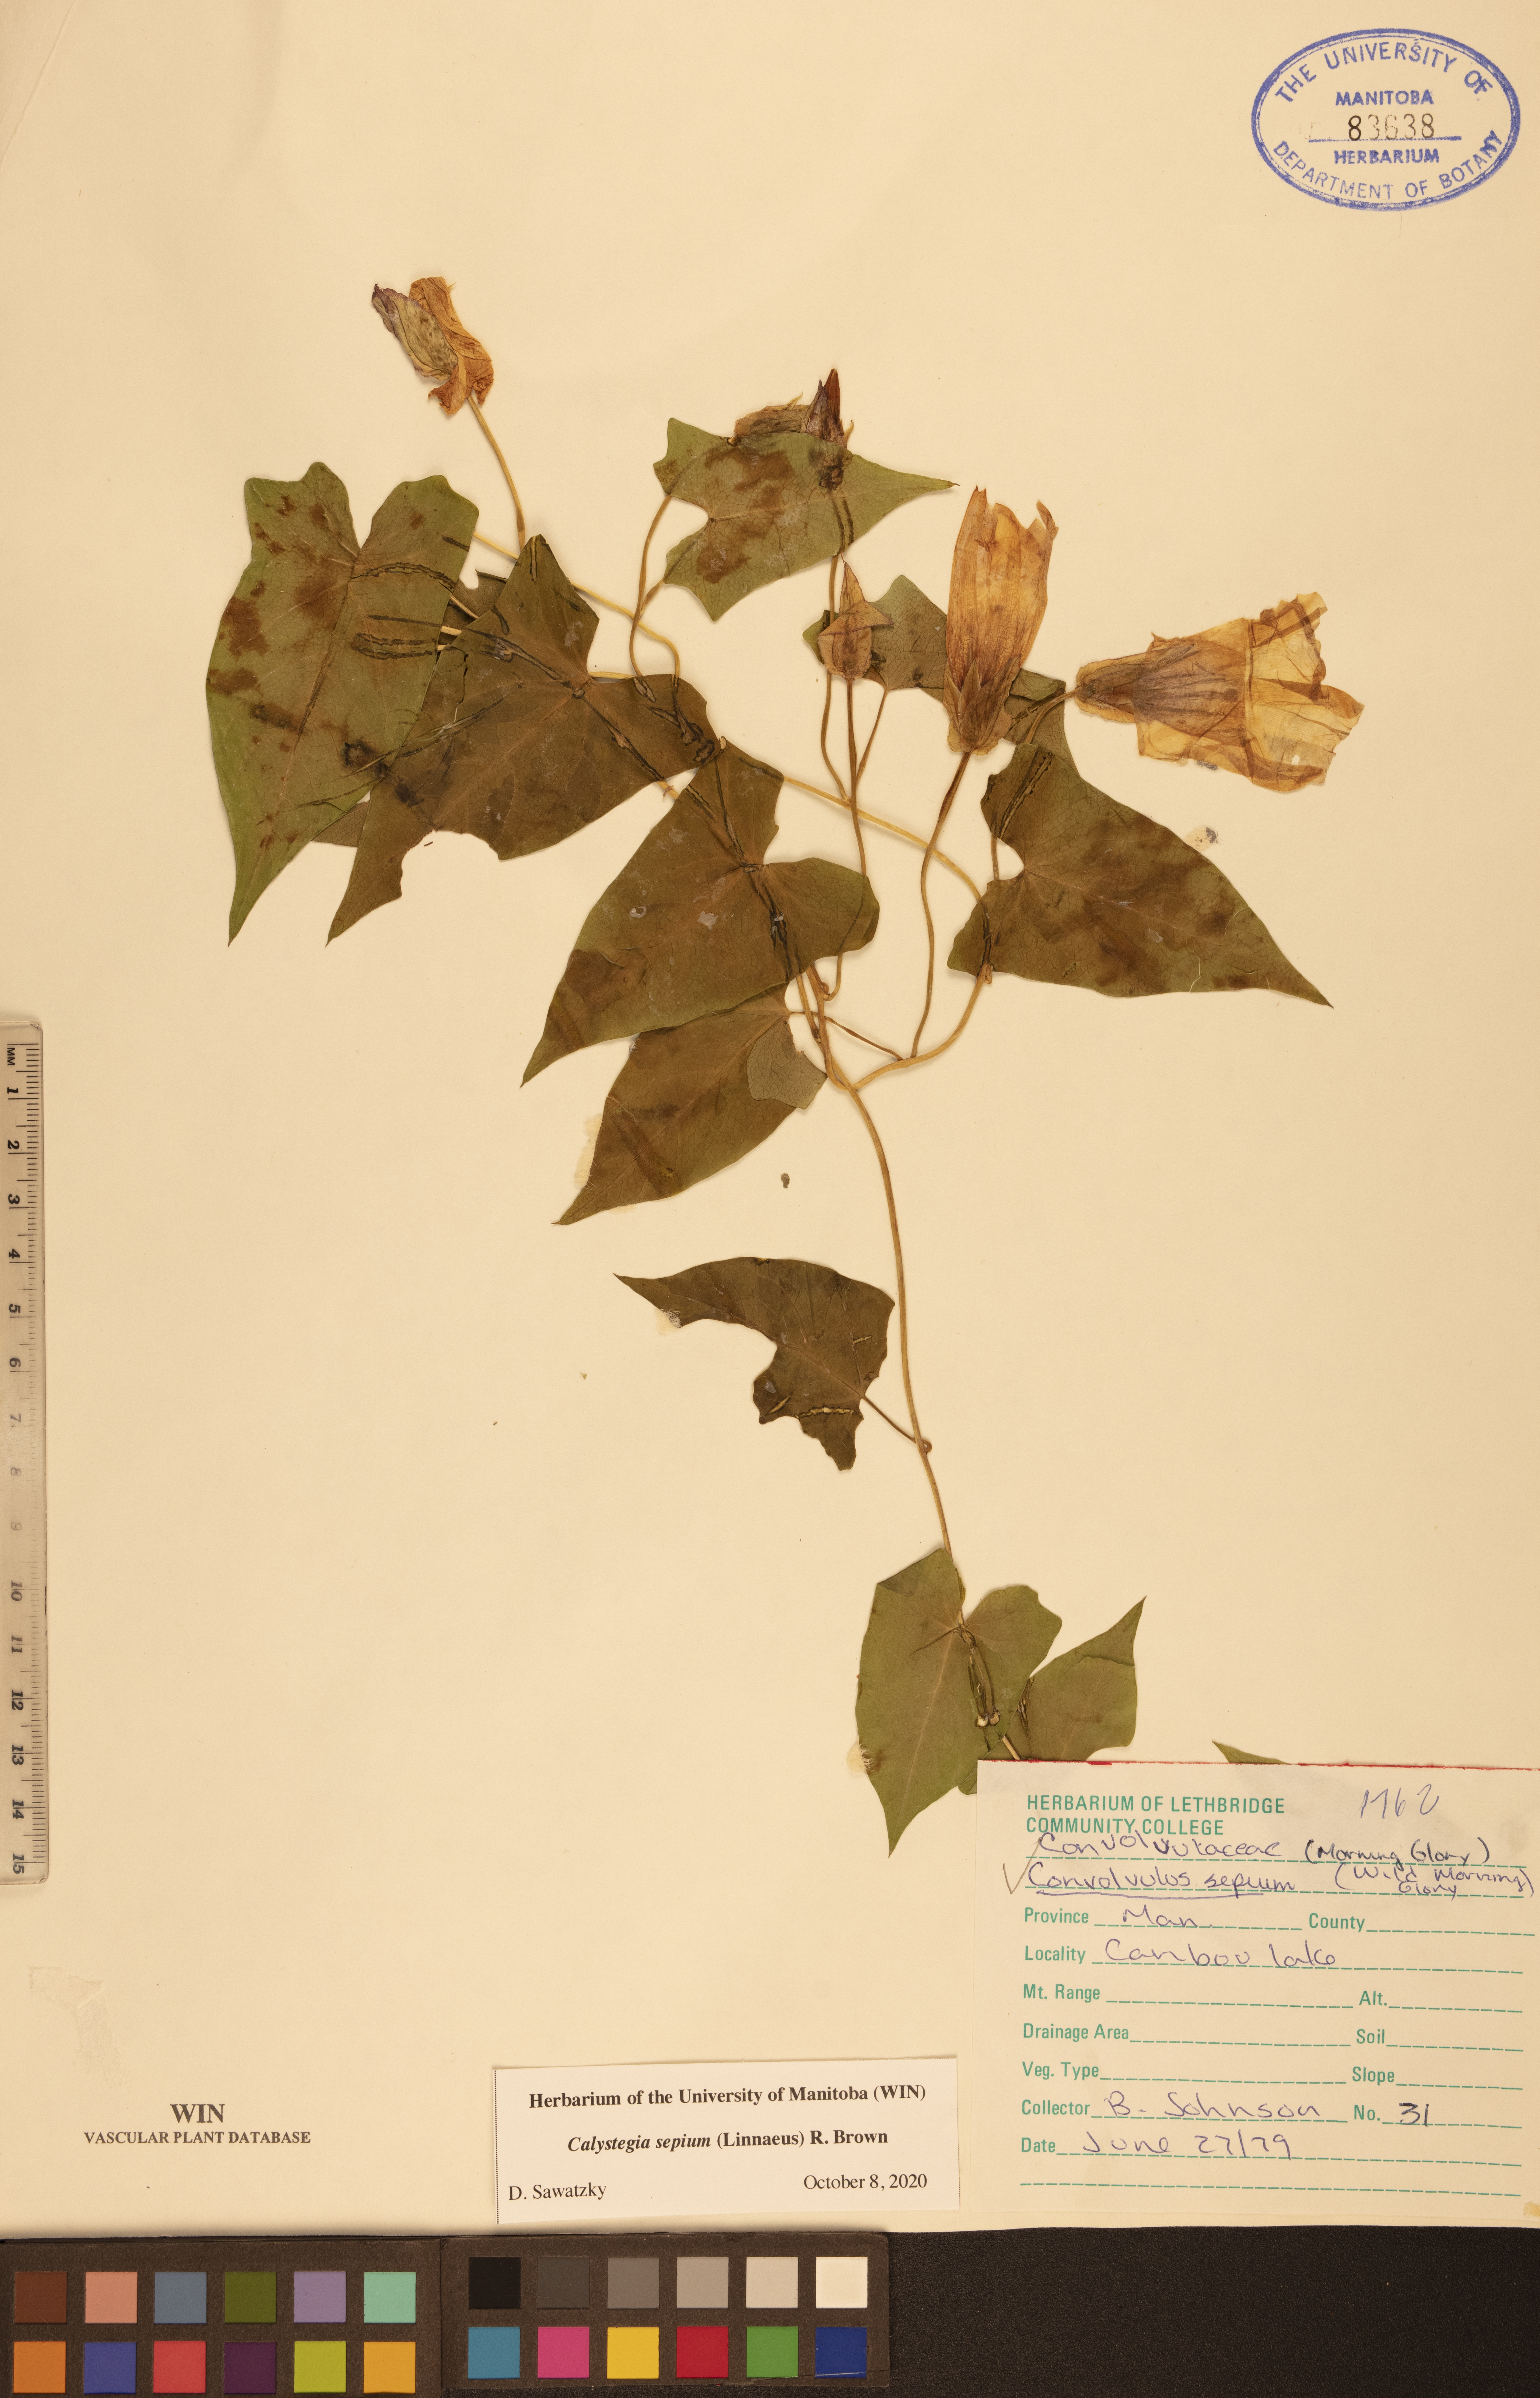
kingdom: Plantae
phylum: Tracheophyta
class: Magnoliopsida
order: Solanales
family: Convolvulaceae
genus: Calystegia
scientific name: Calystegia sepium
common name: Hedge bindweed
